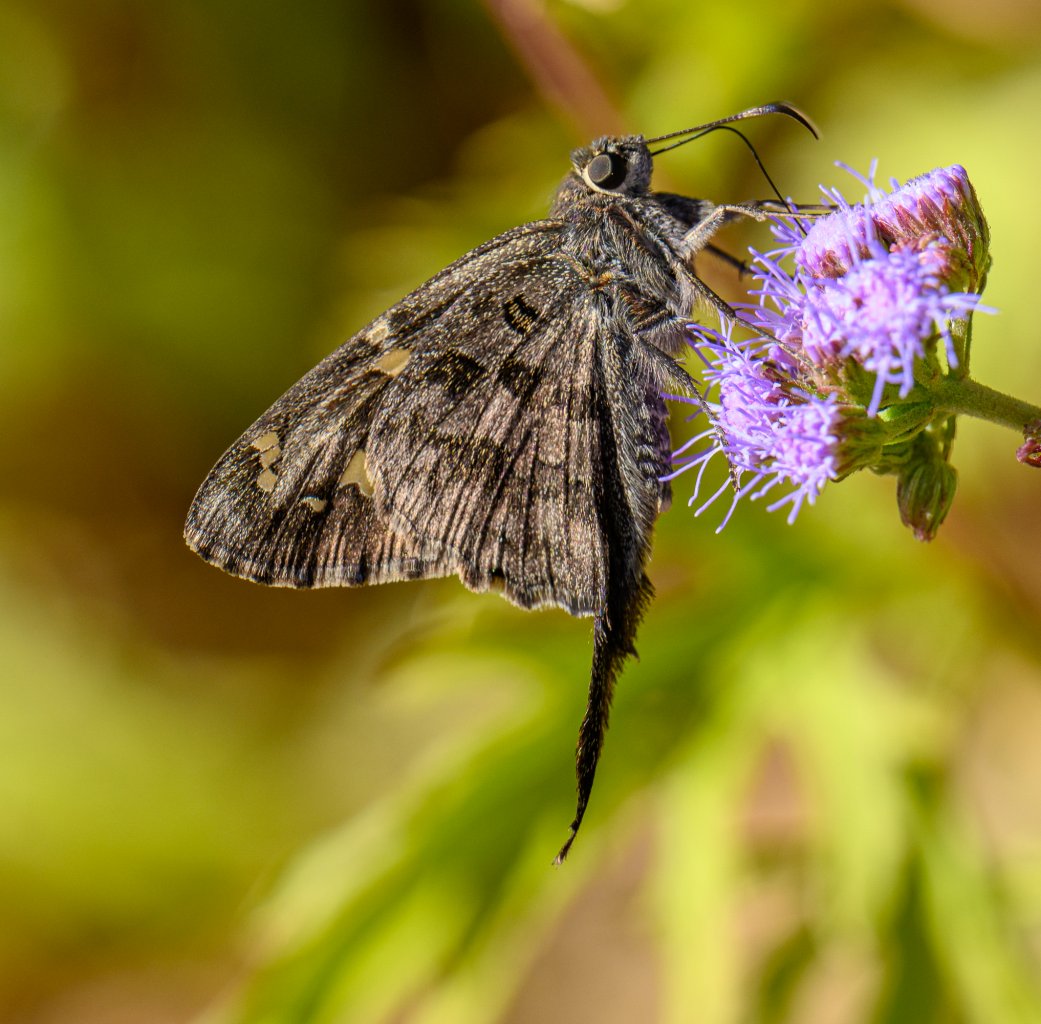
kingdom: Animalia
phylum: Arthropoda
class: Insecta
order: Lepidoptera
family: Hesperiidae
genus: Urbanus
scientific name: Urbanus dorantes
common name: Dorantes Longtail
